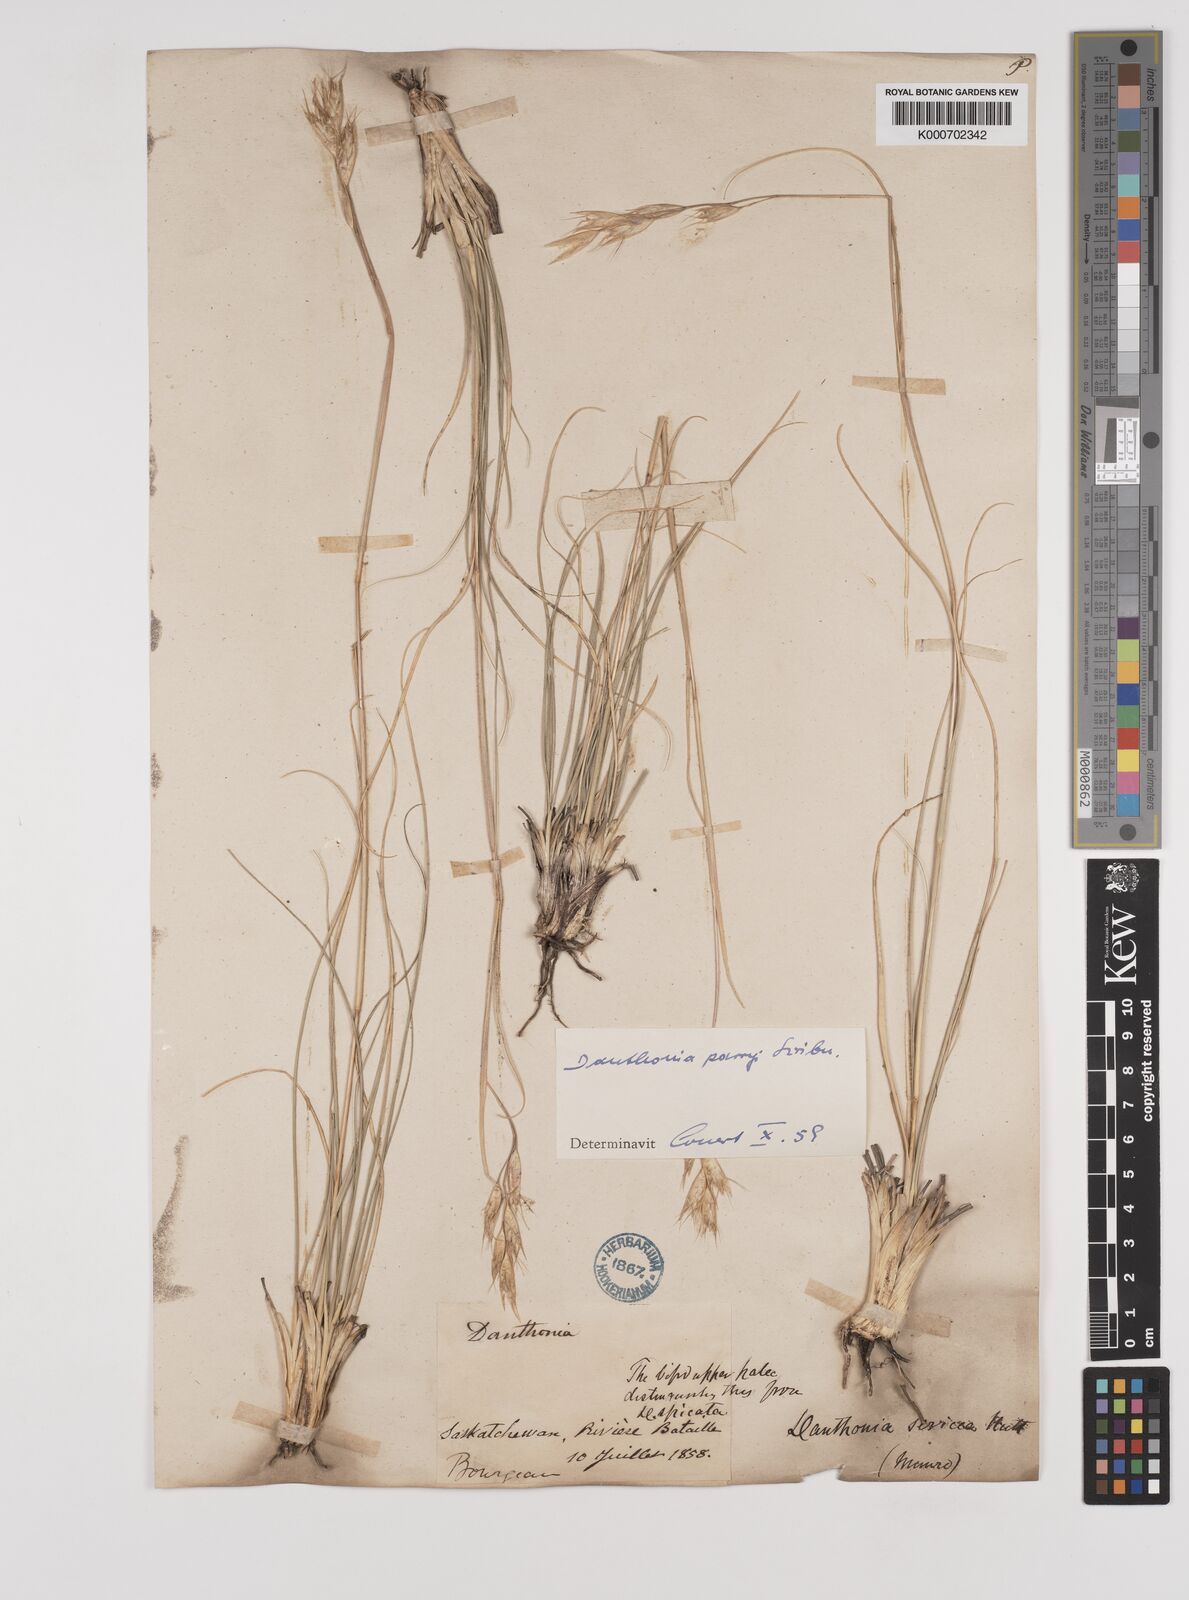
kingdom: Plantae
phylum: Tracheophyta
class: Liliopsida
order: Poales
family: Poaceae
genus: Danthonia
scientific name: Danthonia parryi
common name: Parry's oat grass
